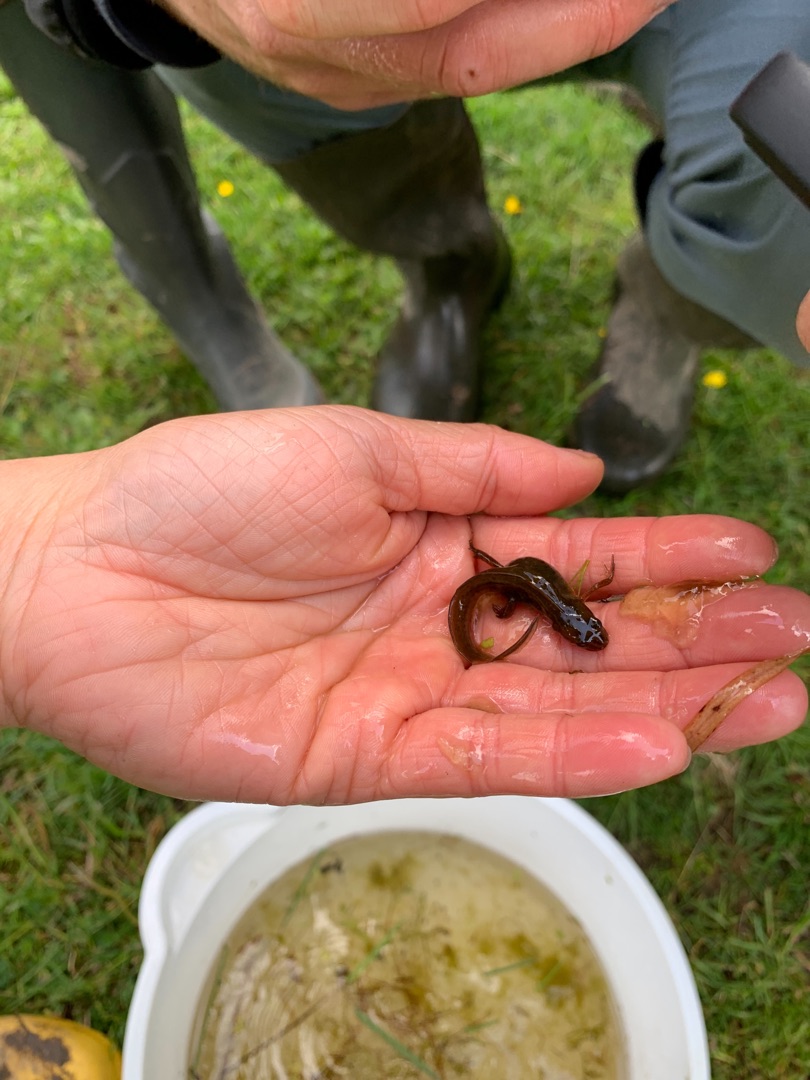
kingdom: Animalia
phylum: Chordata
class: Amphibia
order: Caudata
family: Salamandridae
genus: Lissotriton
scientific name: Lissotriton vulgaris
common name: Lille vandsalamander
